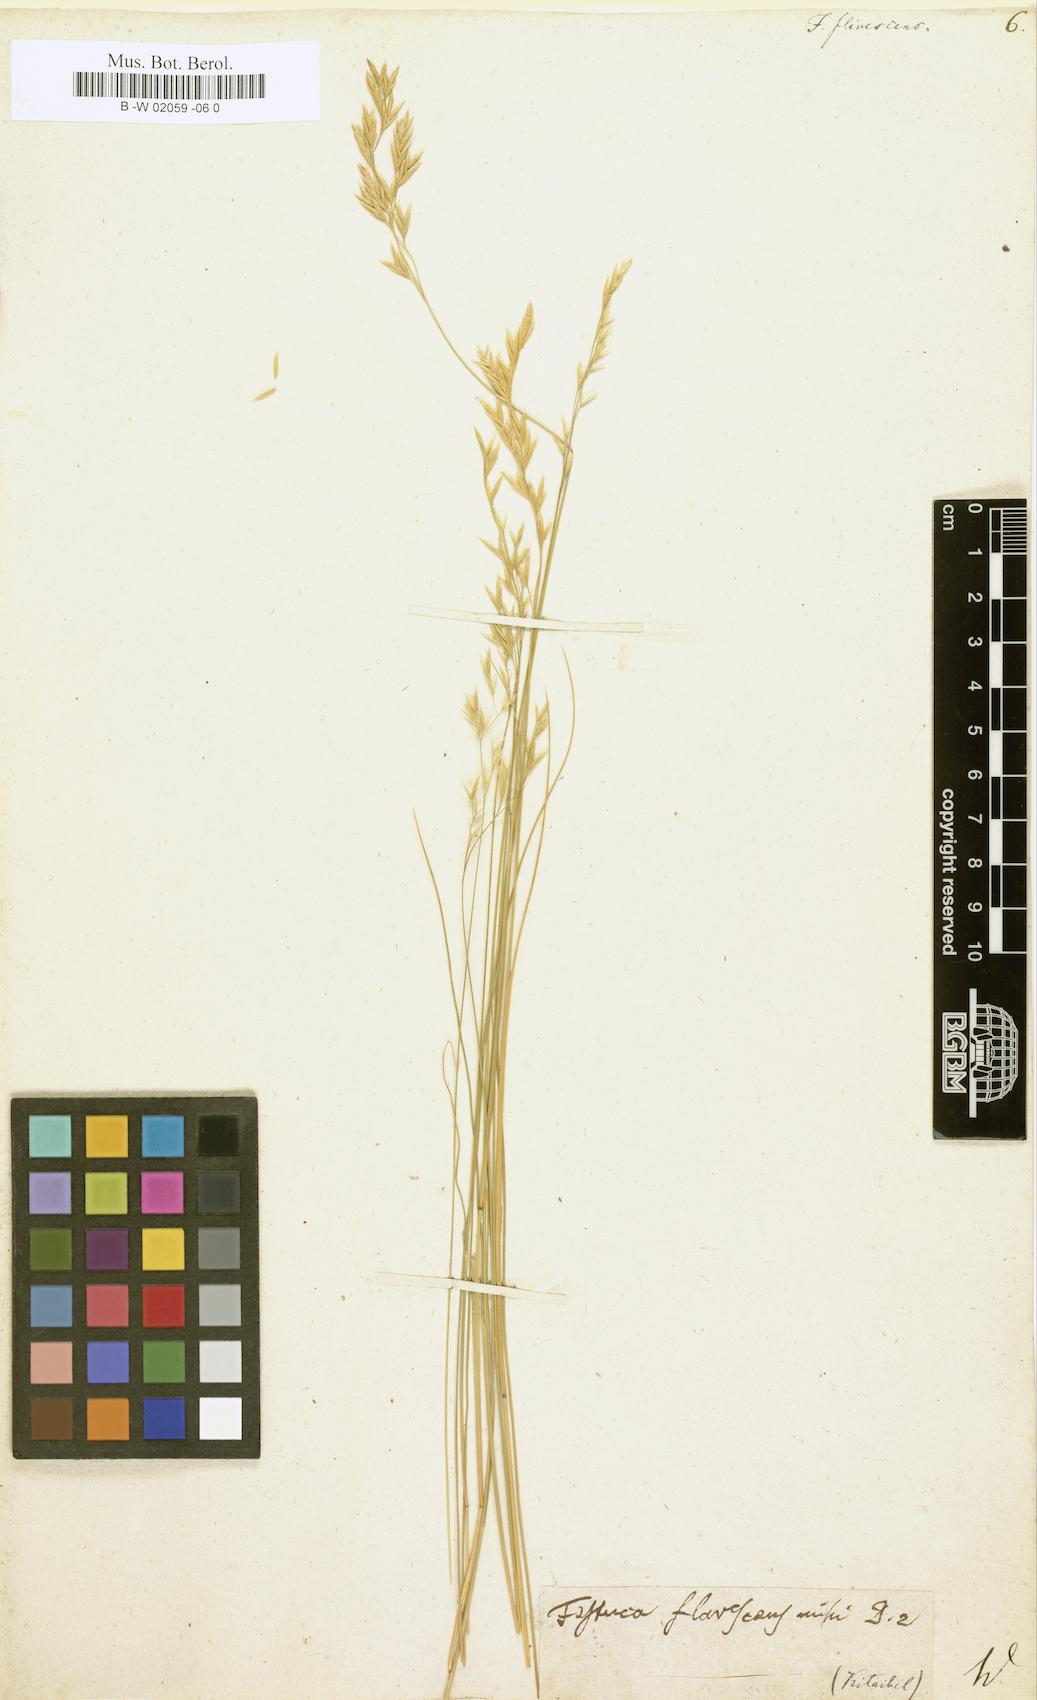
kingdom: Plantae
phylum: Tracheophyta
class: Liliopsida
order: Poales
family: Poaceae
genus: Festuca
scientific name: Festuca flavescens
